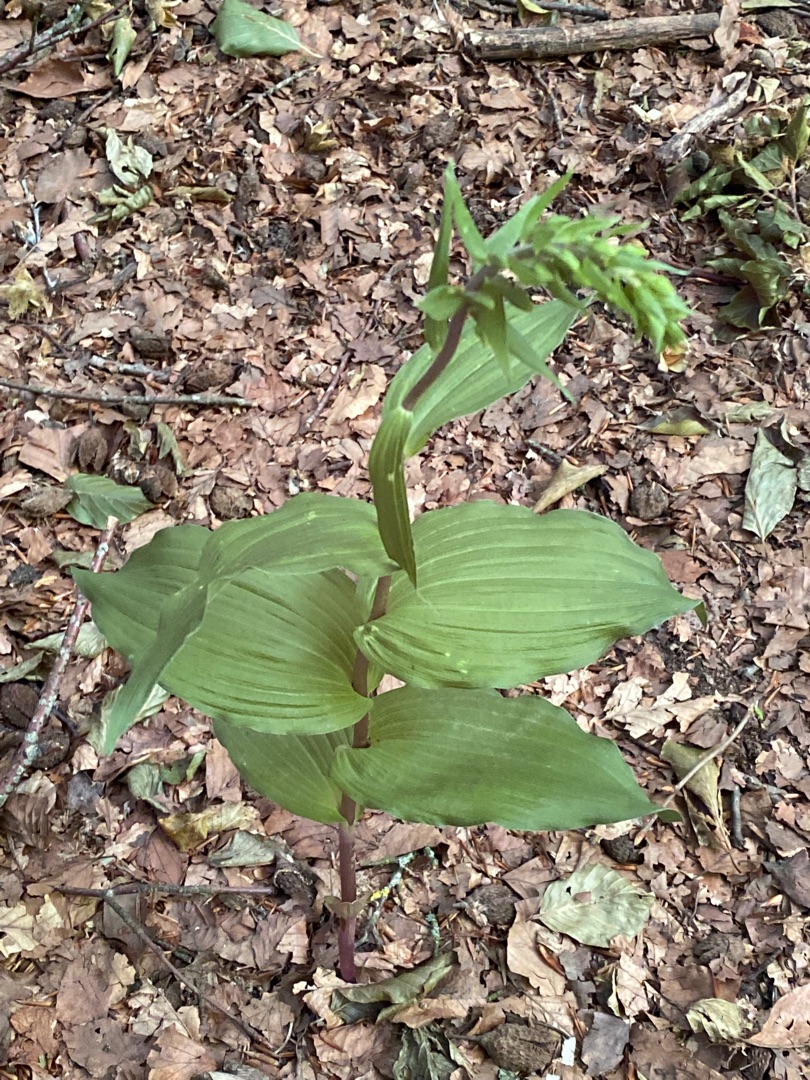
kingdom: Plantae
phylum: Tracheophyta
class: Liliopsida
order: Asparagales
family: Orchidaceae
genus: Epipactis
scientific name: Epipactis helleborine
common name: Skov-hullæbe
